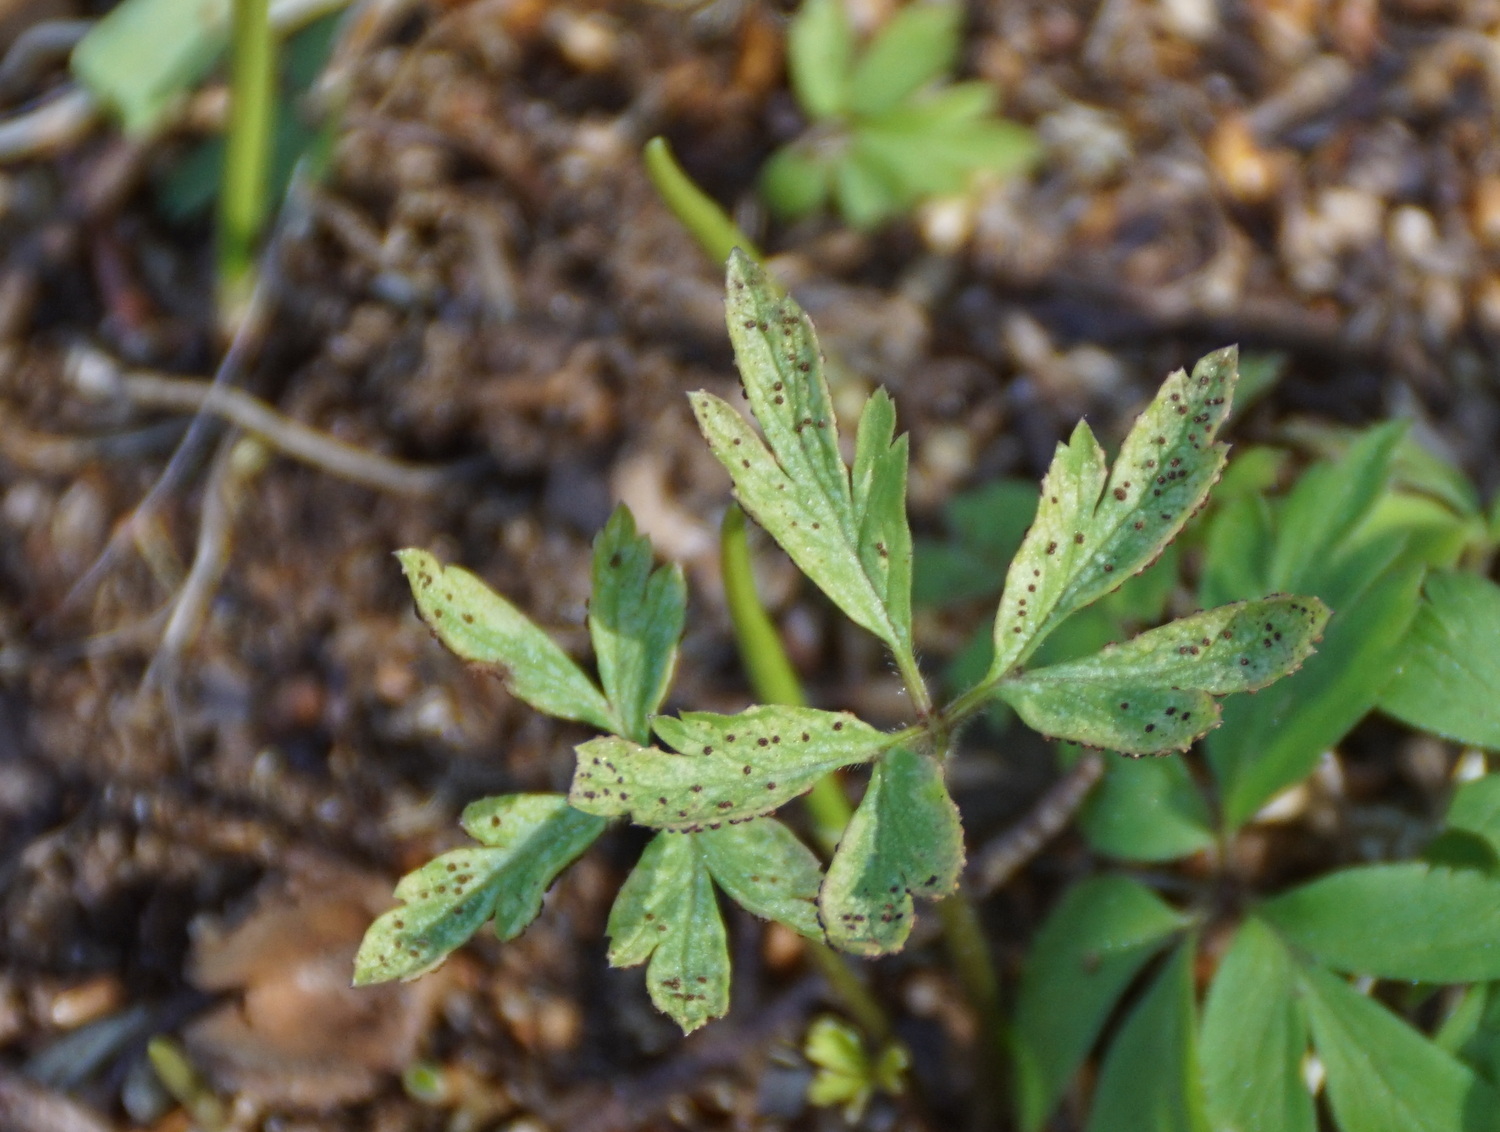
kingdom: Fungi
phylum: Basidiomycota
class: Pucciniomycetes
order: Pucciniales
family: Tranzscheliaceae
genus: Tranzschelia
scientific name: Tranzschelia anemones
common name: anemone-knæksporerust
